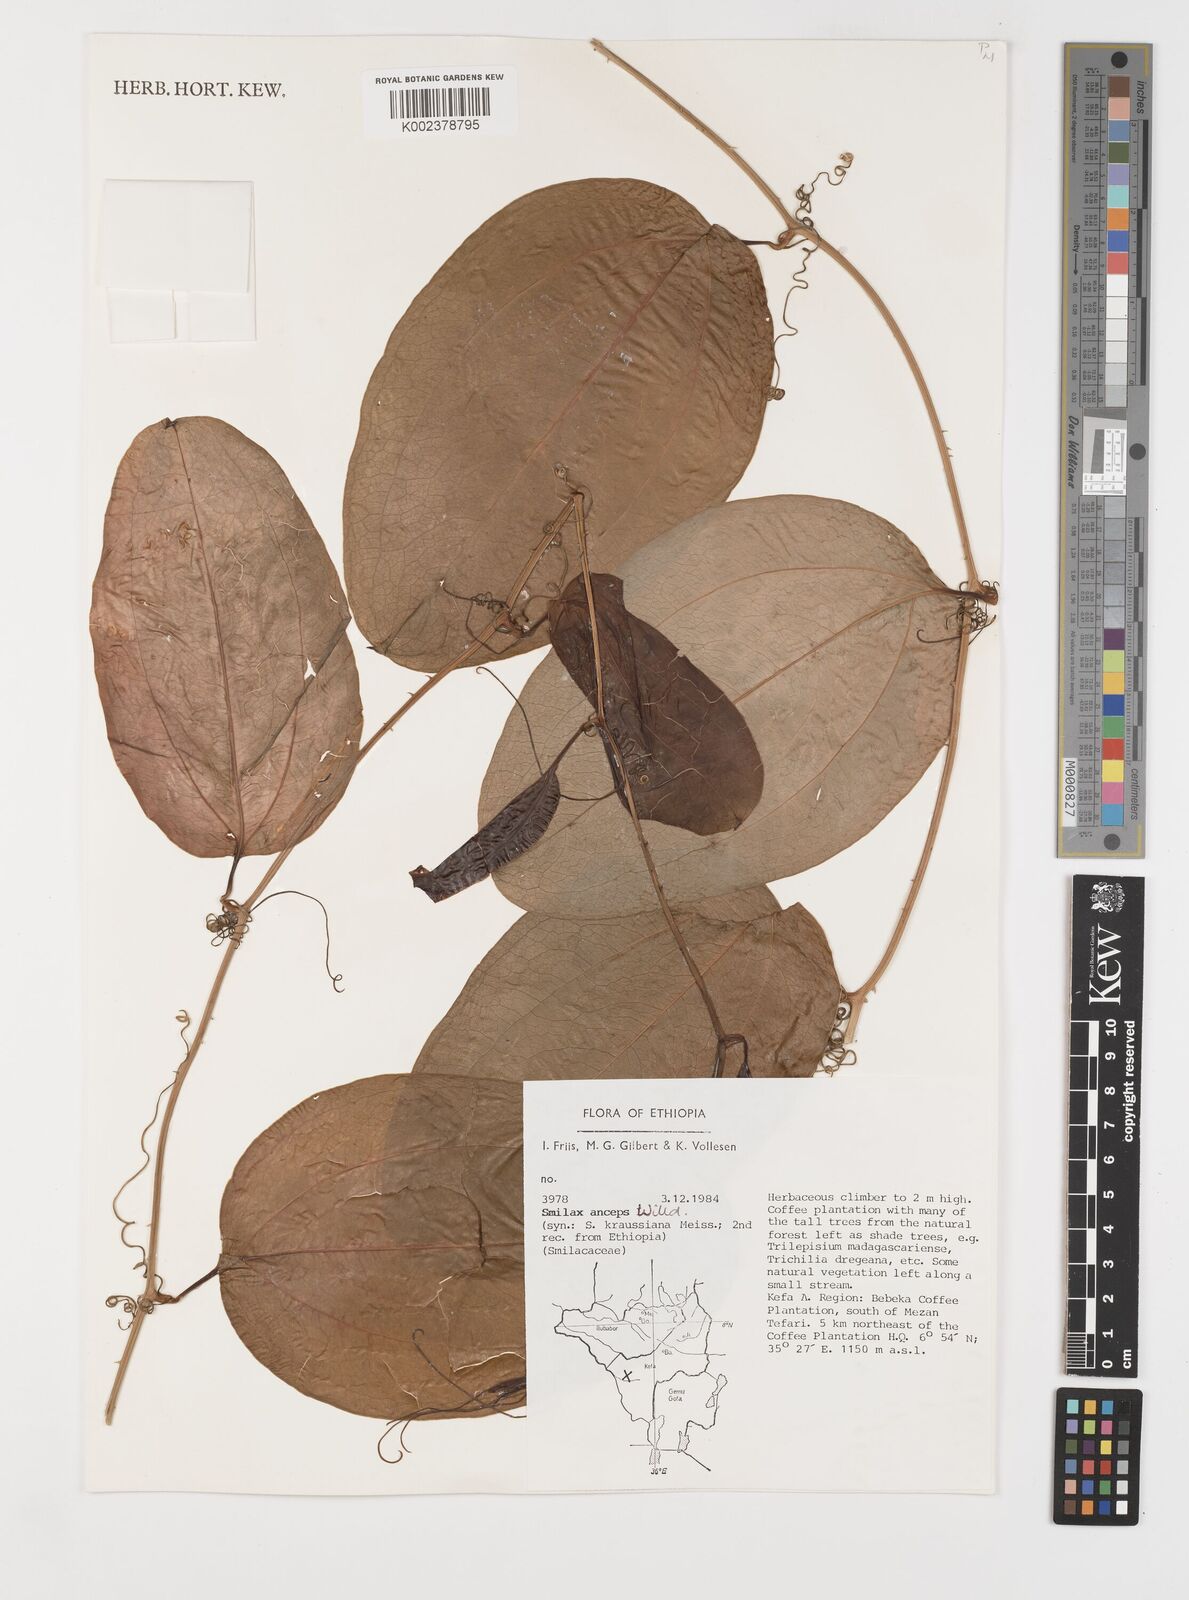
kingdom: Plantae
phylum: Tracheophyta
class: Liliopsida
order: Liliales
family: Smilacaceae
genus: Smilax
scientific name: Smilax anceps
